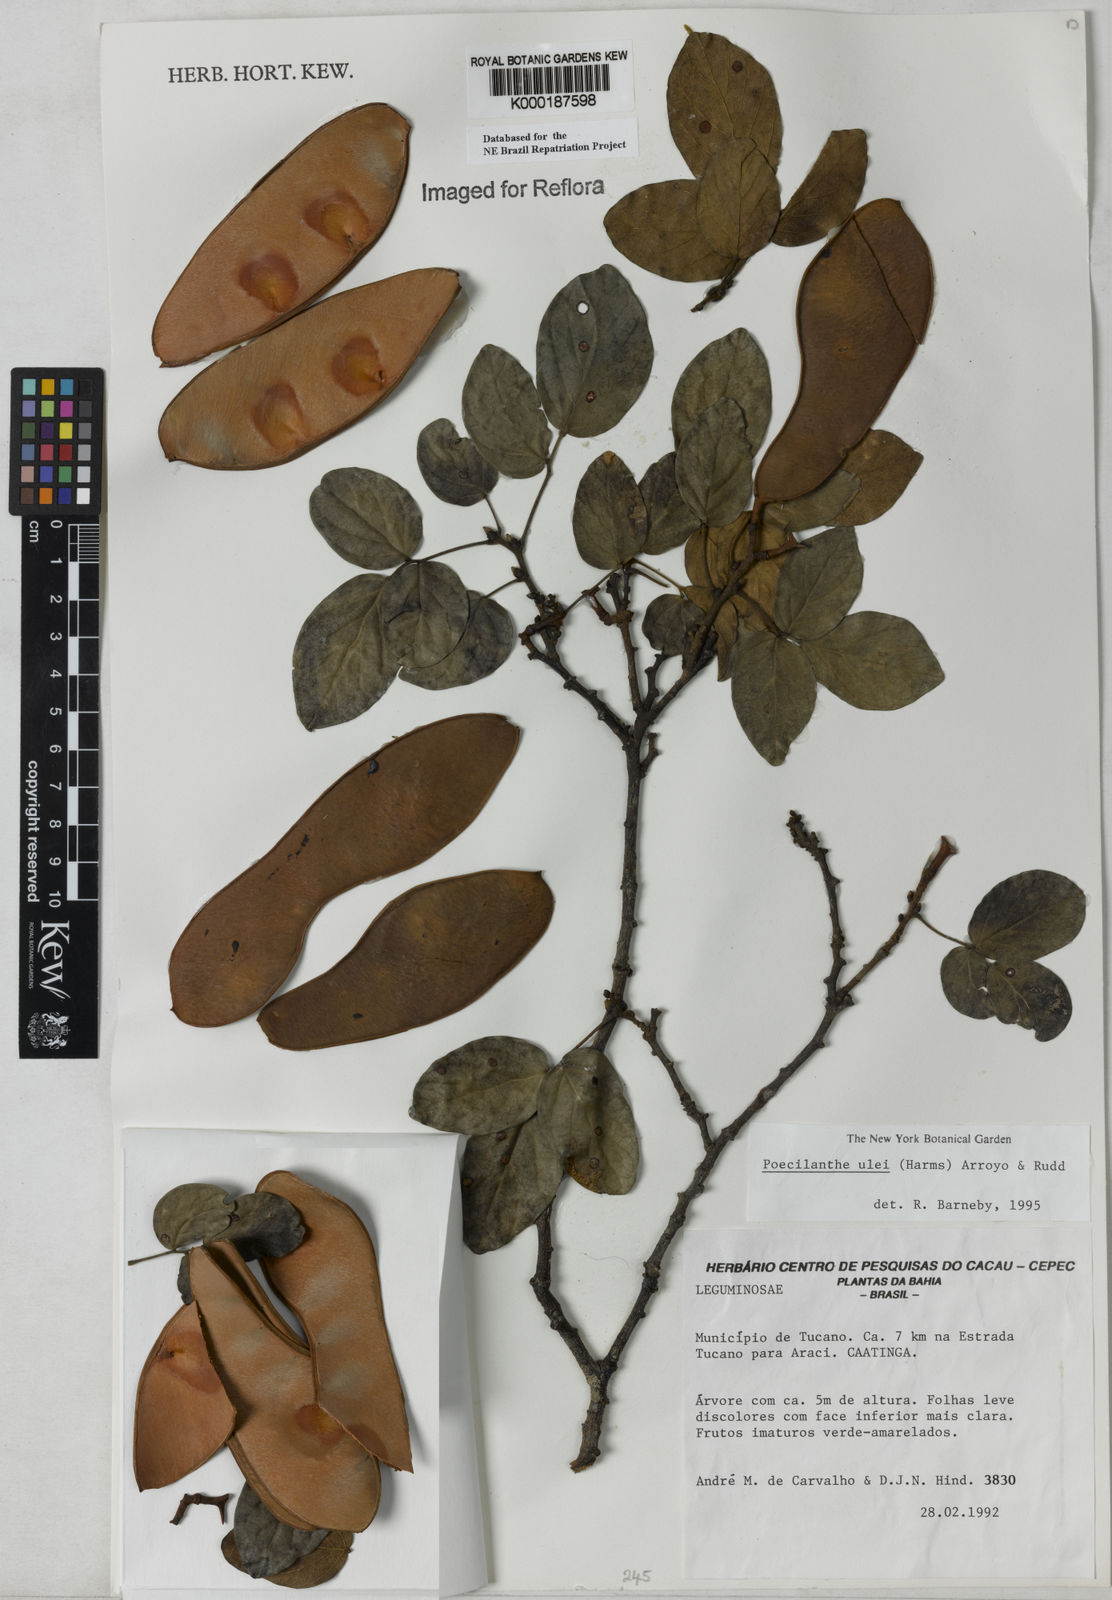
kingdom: Plantae
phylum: Tracheophyta
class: Magnoliopsida
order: Fabales
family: Fabaceae
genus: Poecilanthe
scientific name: Poecilanthe ulei
